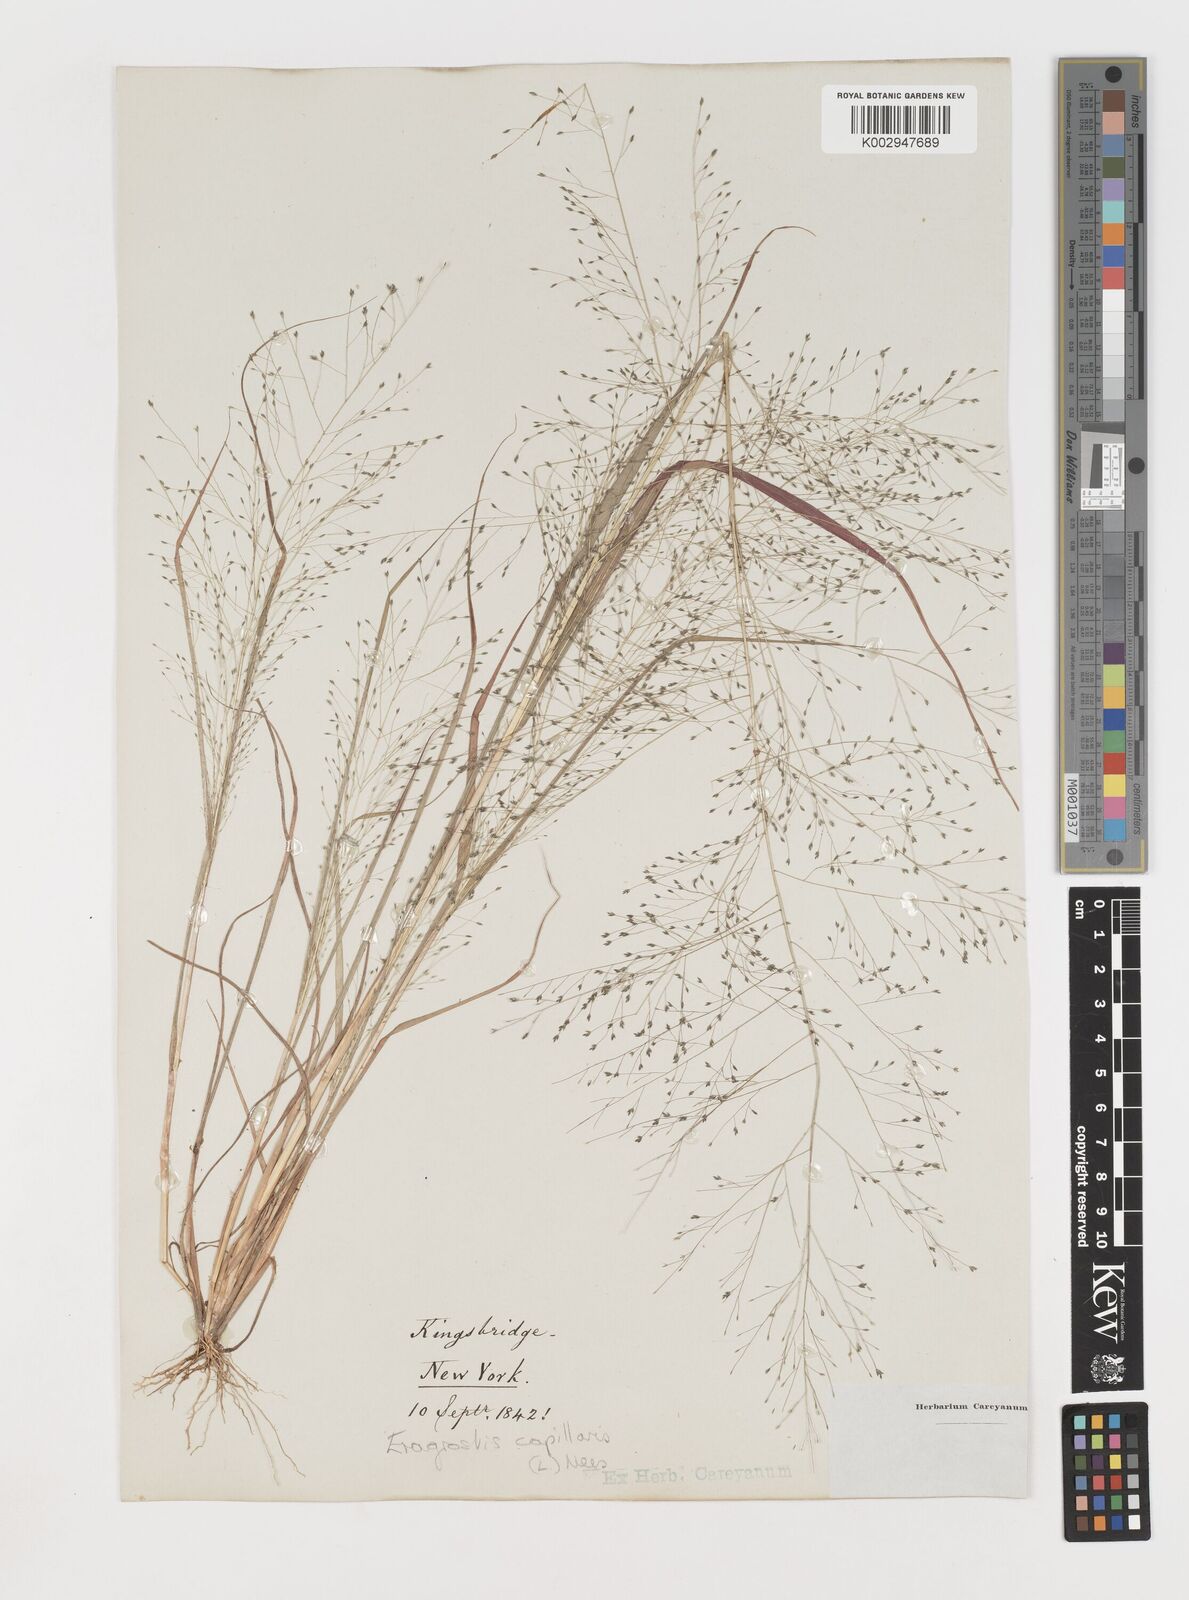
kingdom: Plantae
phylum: Tracheophyta
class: Liliopsida
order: Poales
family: Poaceae
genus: Eragrostis
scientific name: Eragrostis capillaris
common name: Hair-like lovegrass
